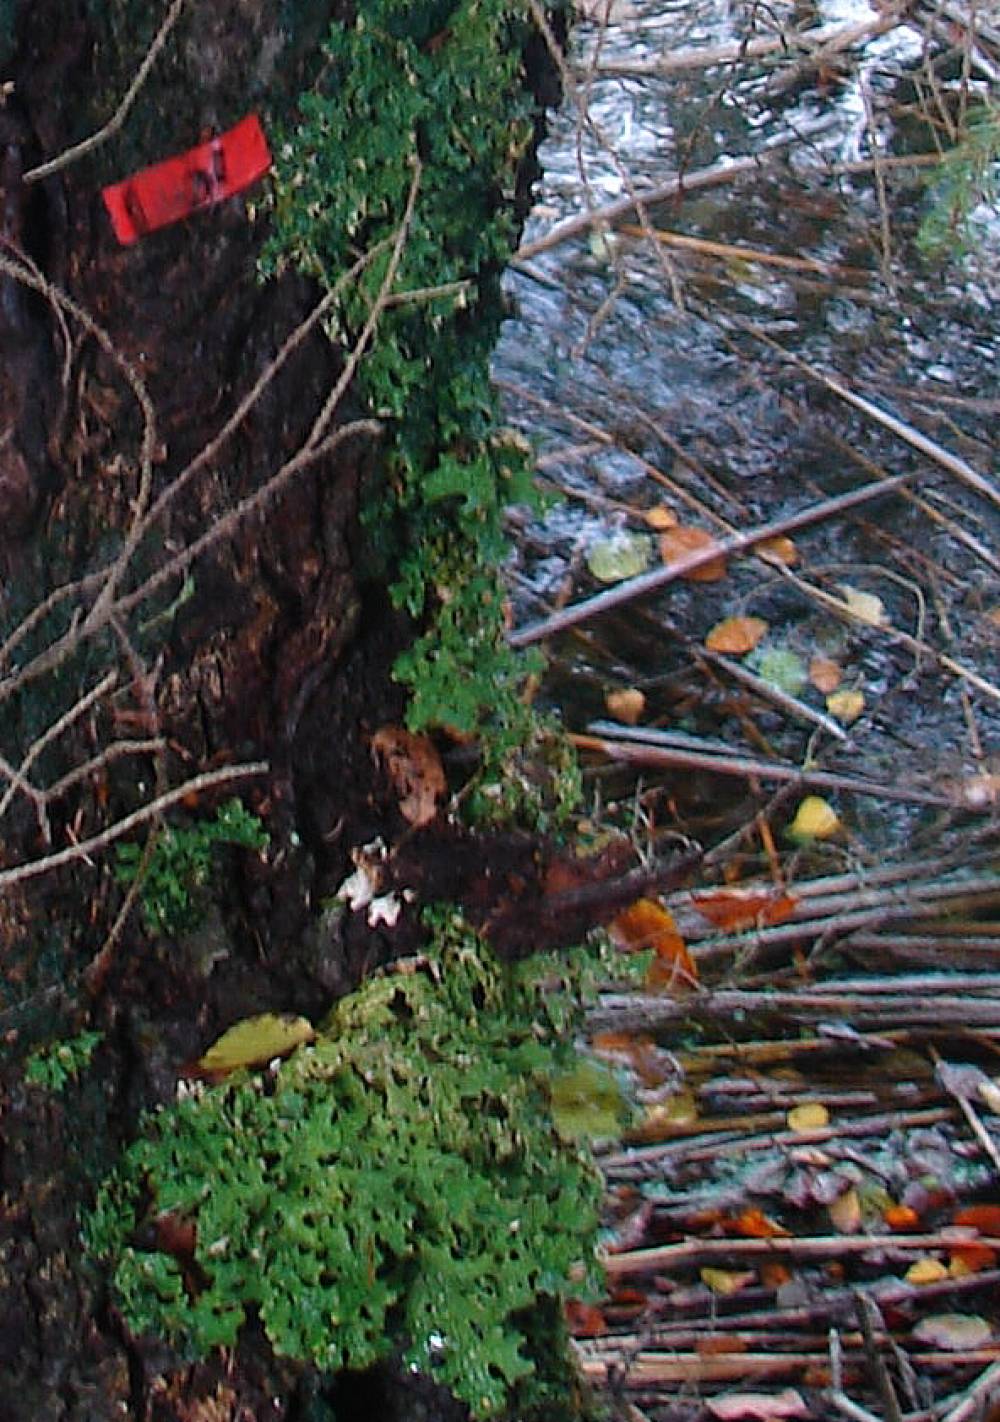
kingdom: Fungi
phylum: Ascomycota
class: Lecanoromycetes
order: Peltigerales
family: Lobariaceae
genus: Lobaria
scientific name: Lobaria pulmonaria
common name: almindelig lungelav
